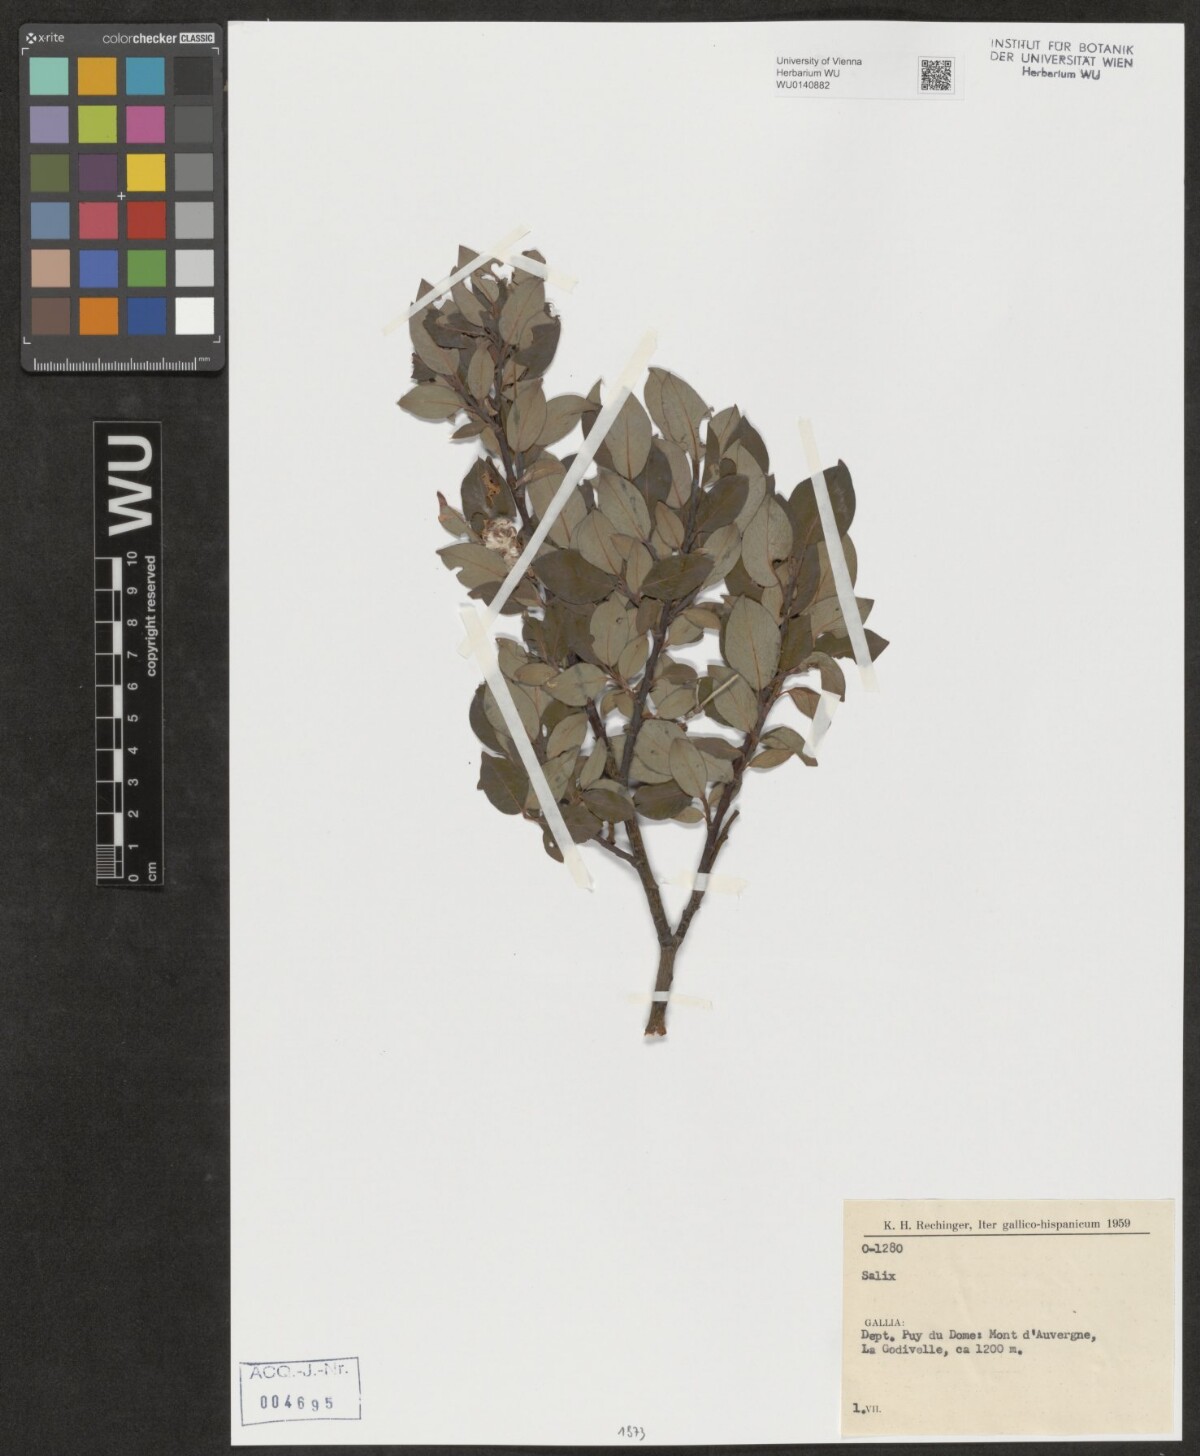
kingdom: Plantae
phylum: Tracheophyta
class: Magnoliopsida
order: Malpighiales
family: Salicaceae
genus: Salix
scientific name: Salix
